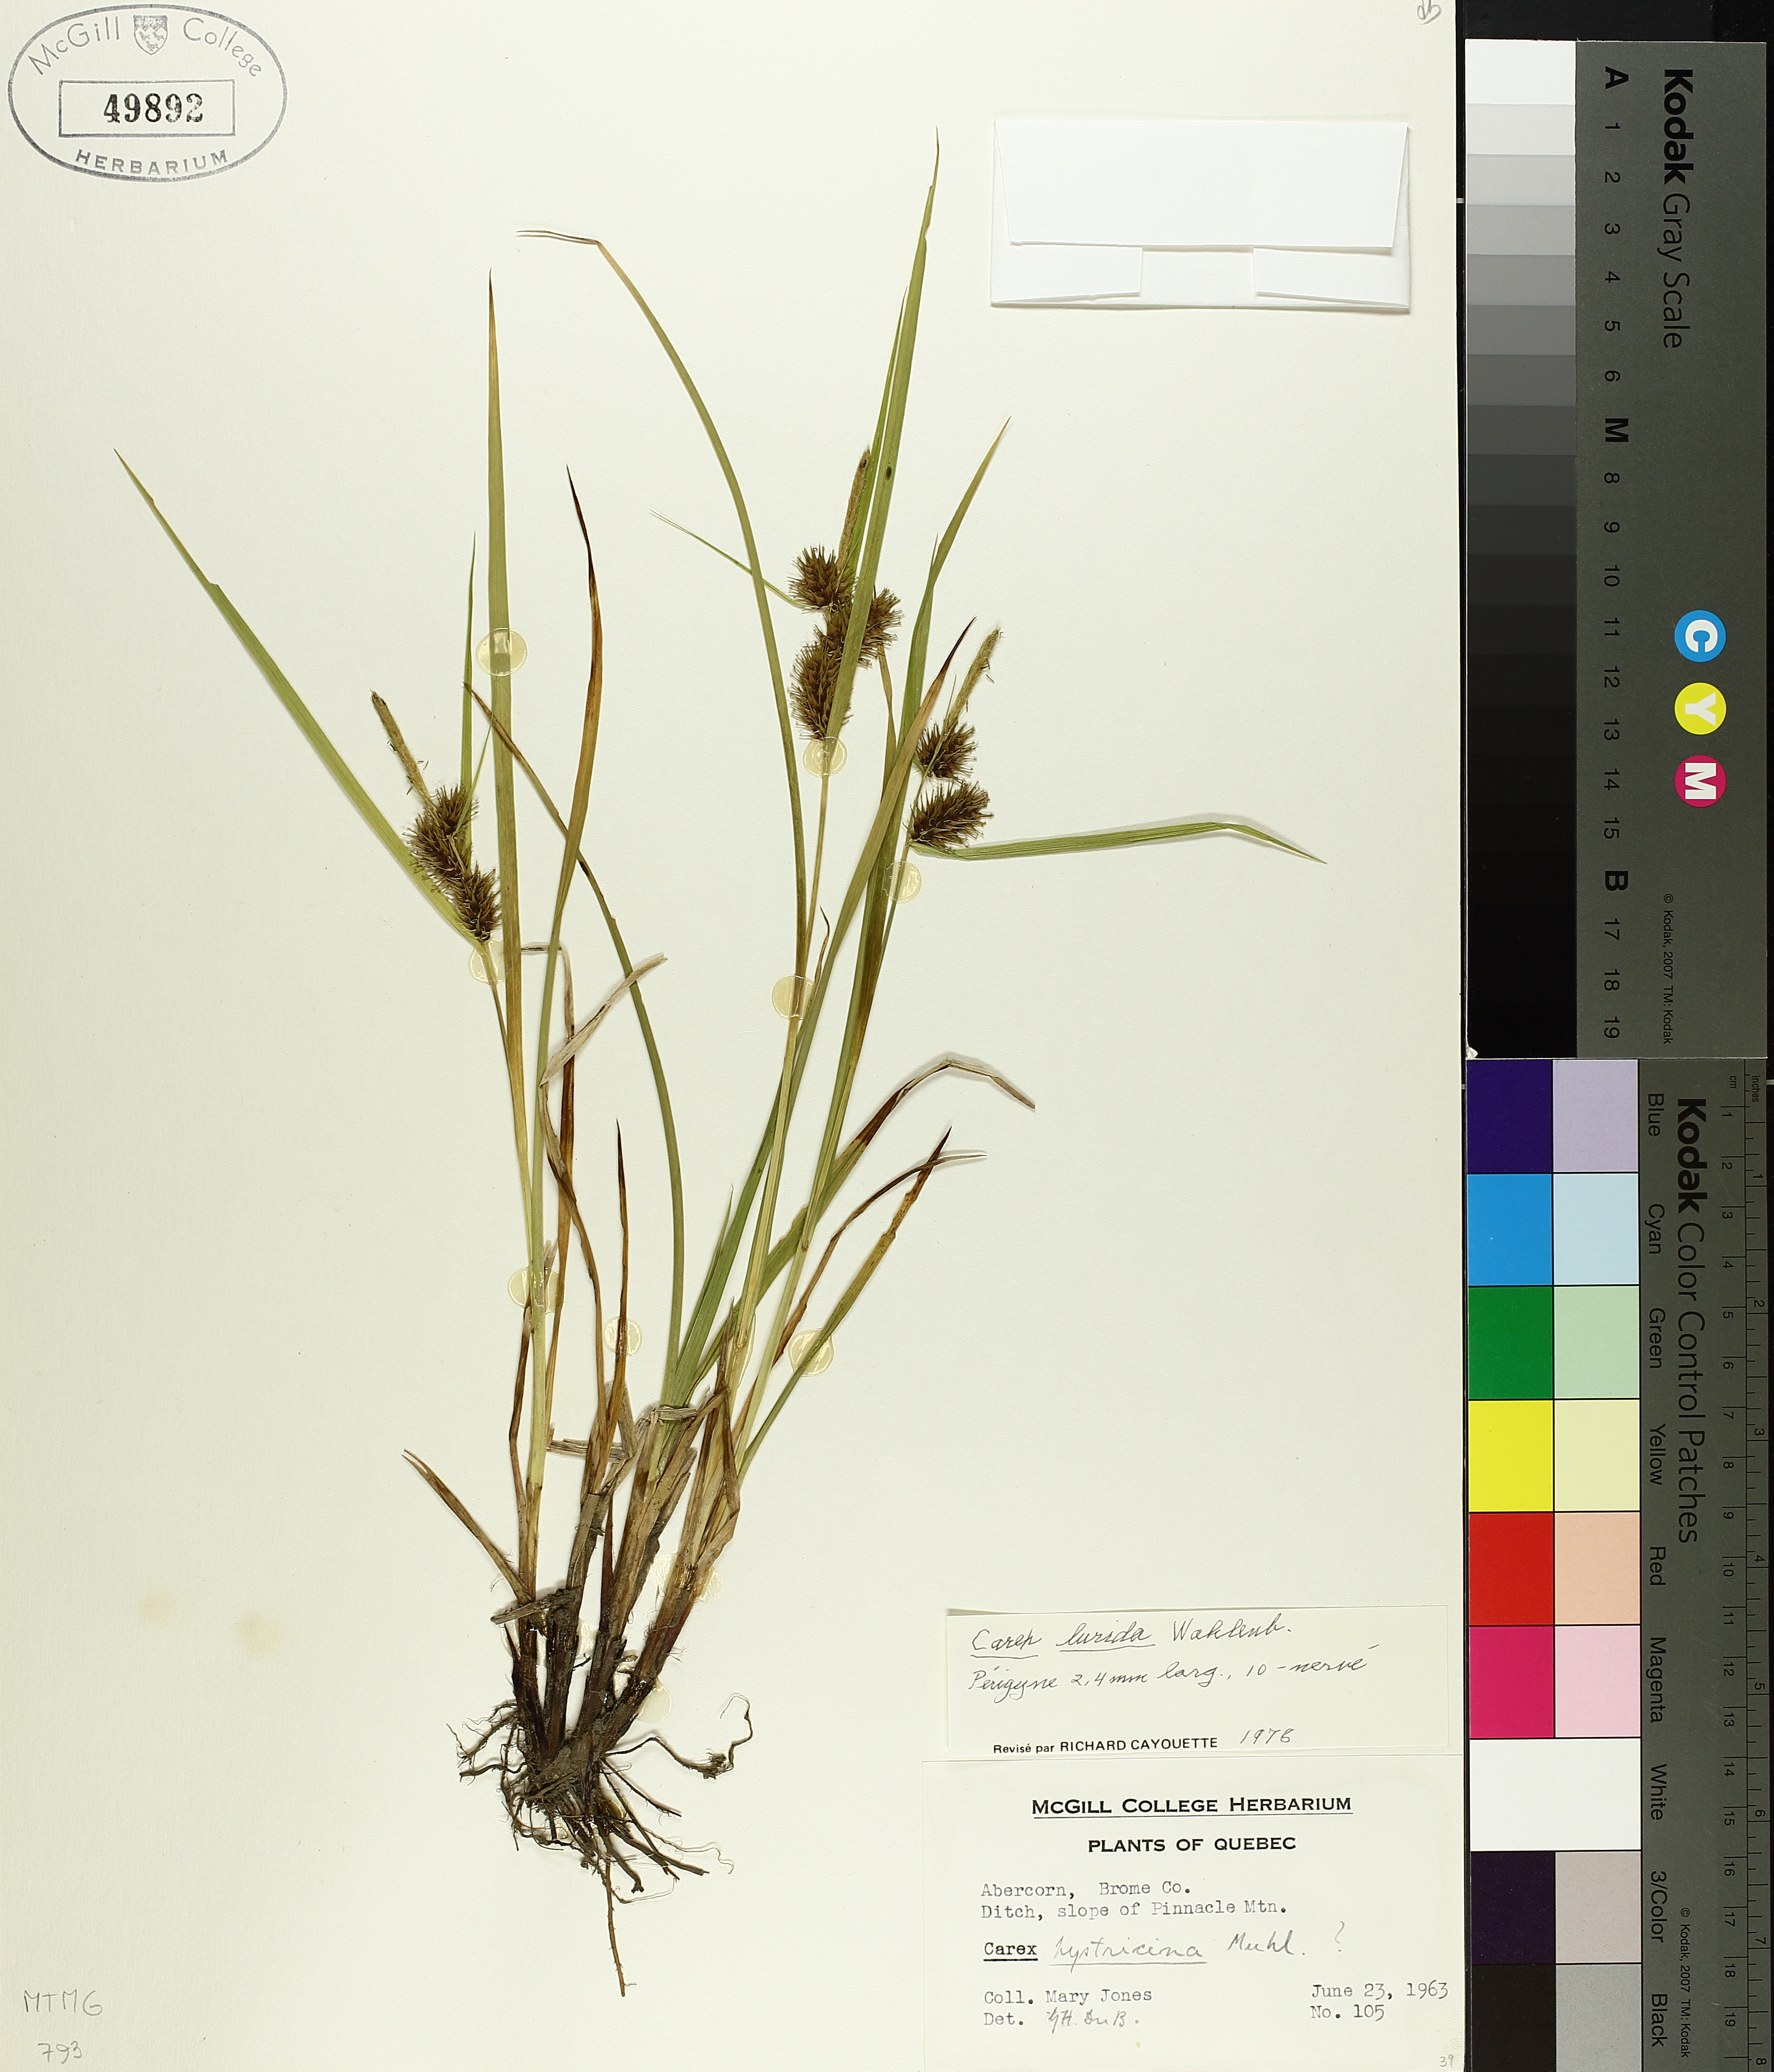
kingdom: Plantae
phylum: Tracheophyta
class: Liliopsida
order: Poales
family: Cyperaceae
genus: Carex
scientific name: Carex lurida
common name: Sallow sedge
